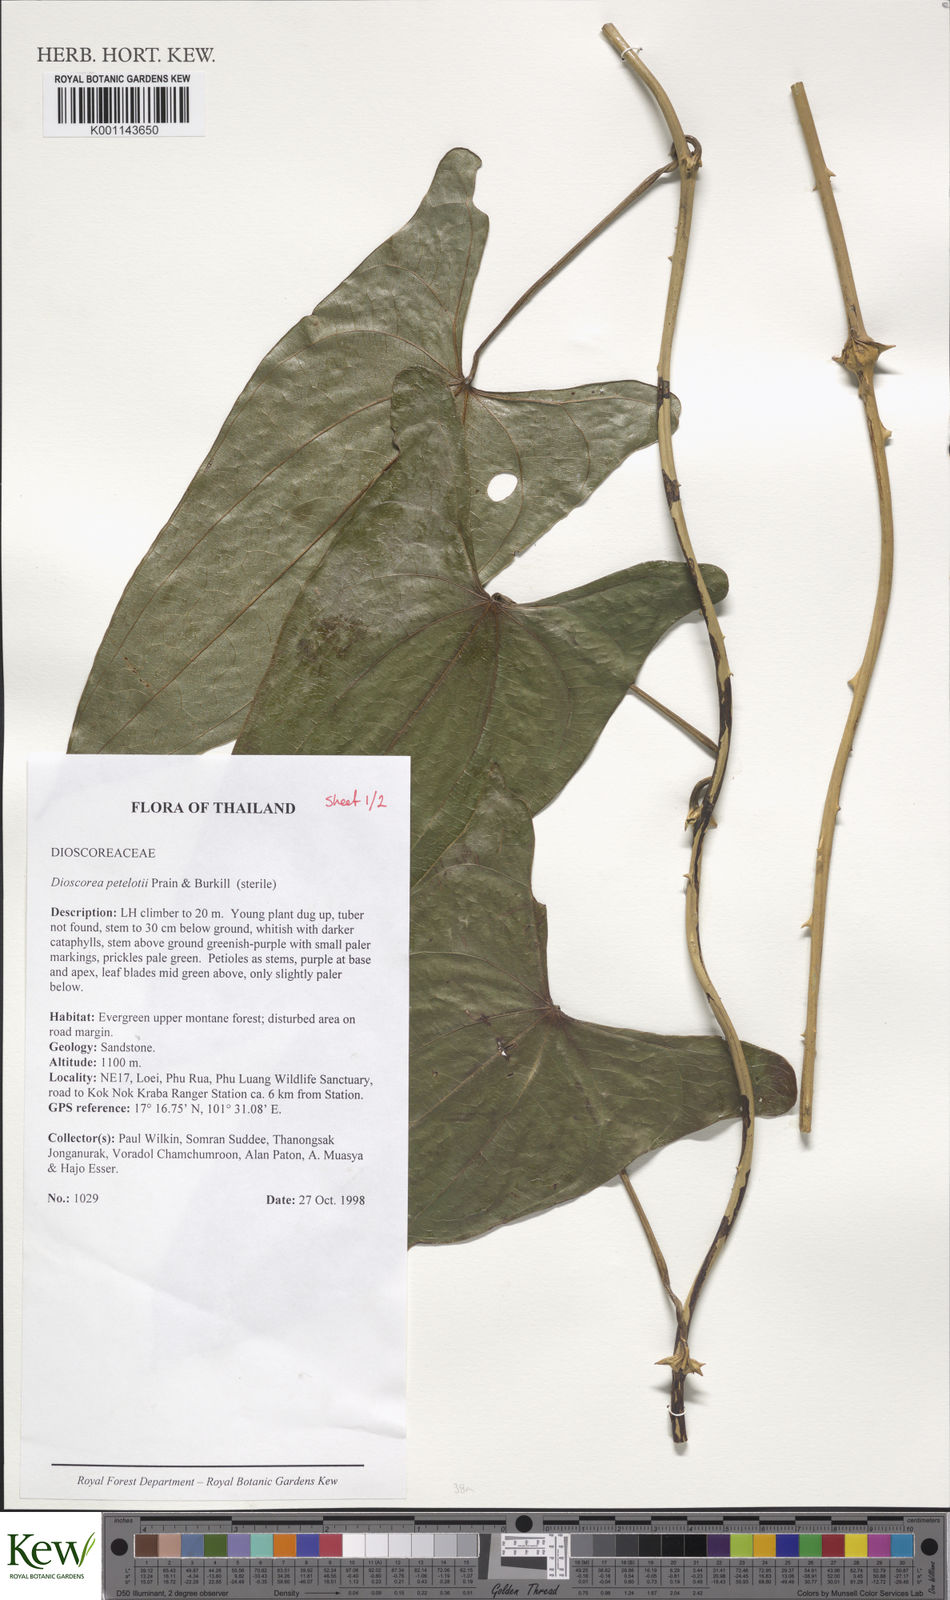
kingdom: Plantae
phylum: Tracheophyta
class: Liliopsida
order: Dioscoreales
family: Dioscoreaceae
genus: Dioscorea
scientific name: Dioscorea petelotii
